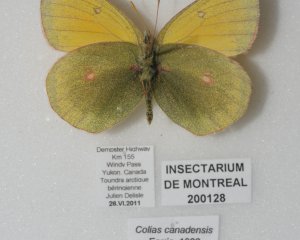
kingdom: Animalia
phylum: Arthropoda
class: Insecta
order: Lepidoptera
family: Pieridae
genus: Colias
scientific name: Colias canadensis
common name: Canadian Sulphur
